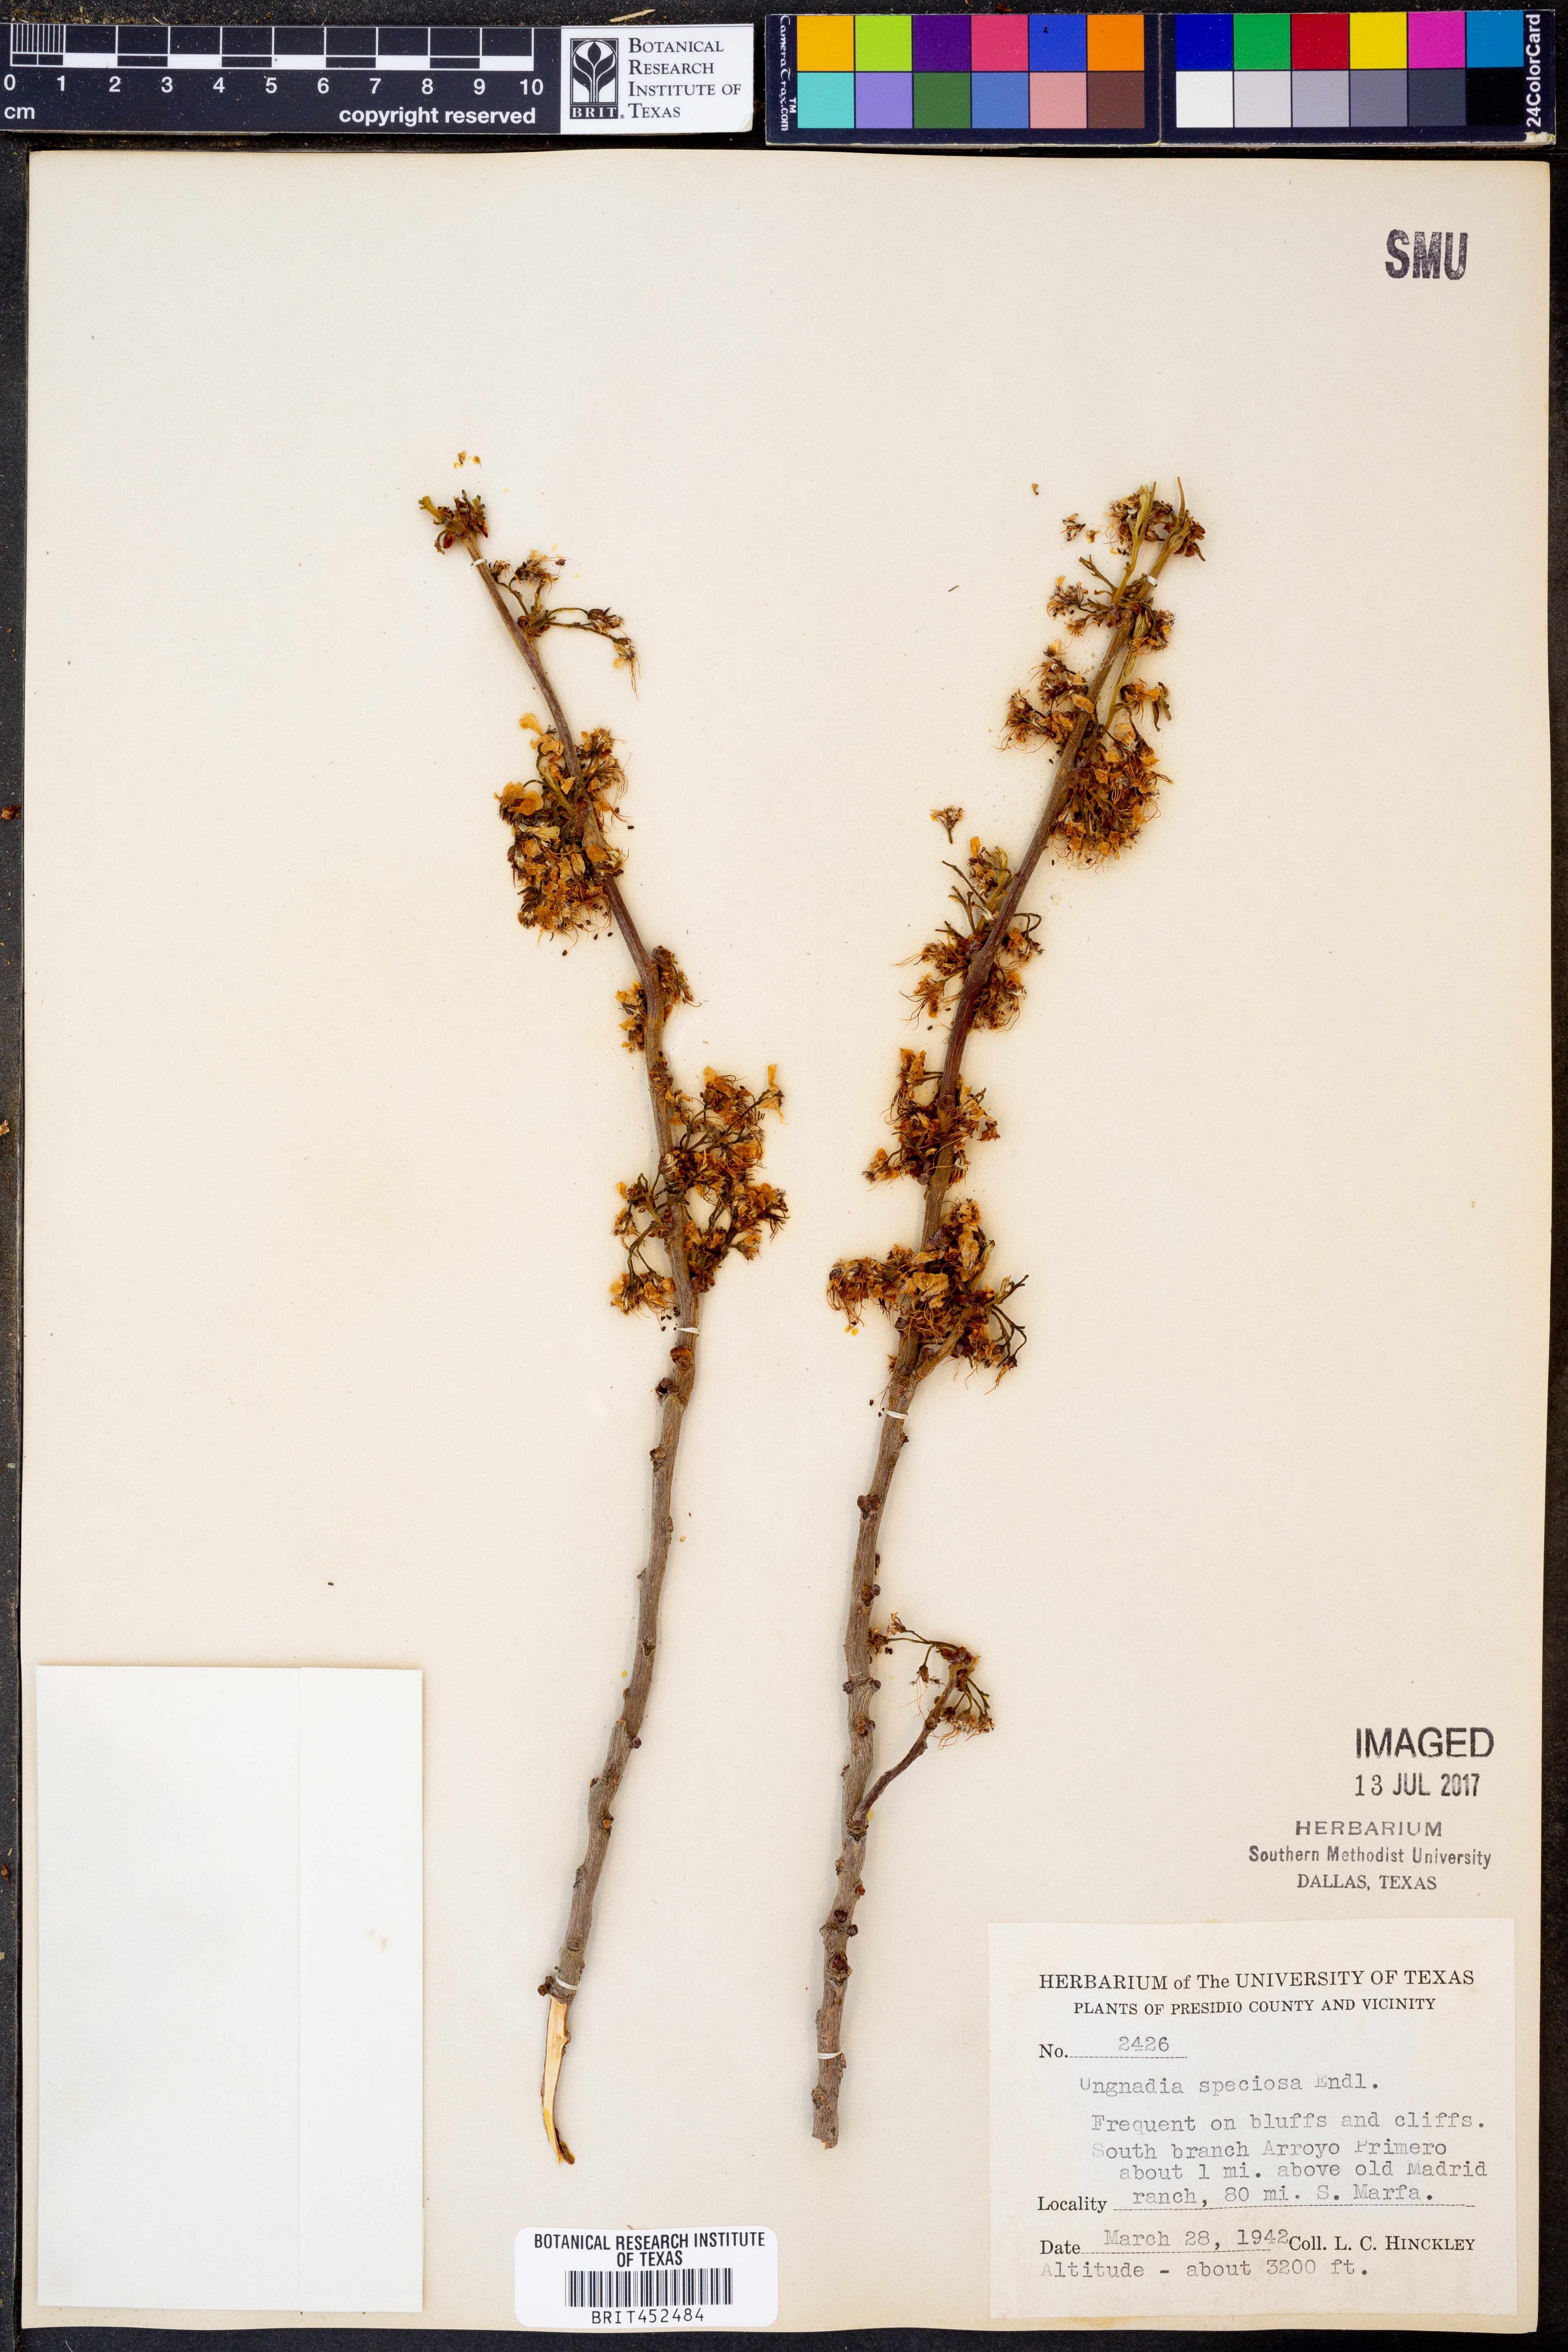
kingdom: Plantae
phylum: Tracheophyta
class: Magnoliopsida
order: Sapindales
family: Sapindaceae
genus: Ungnadia
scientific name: Ungnadia speciosa
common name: Texas-buckeye
